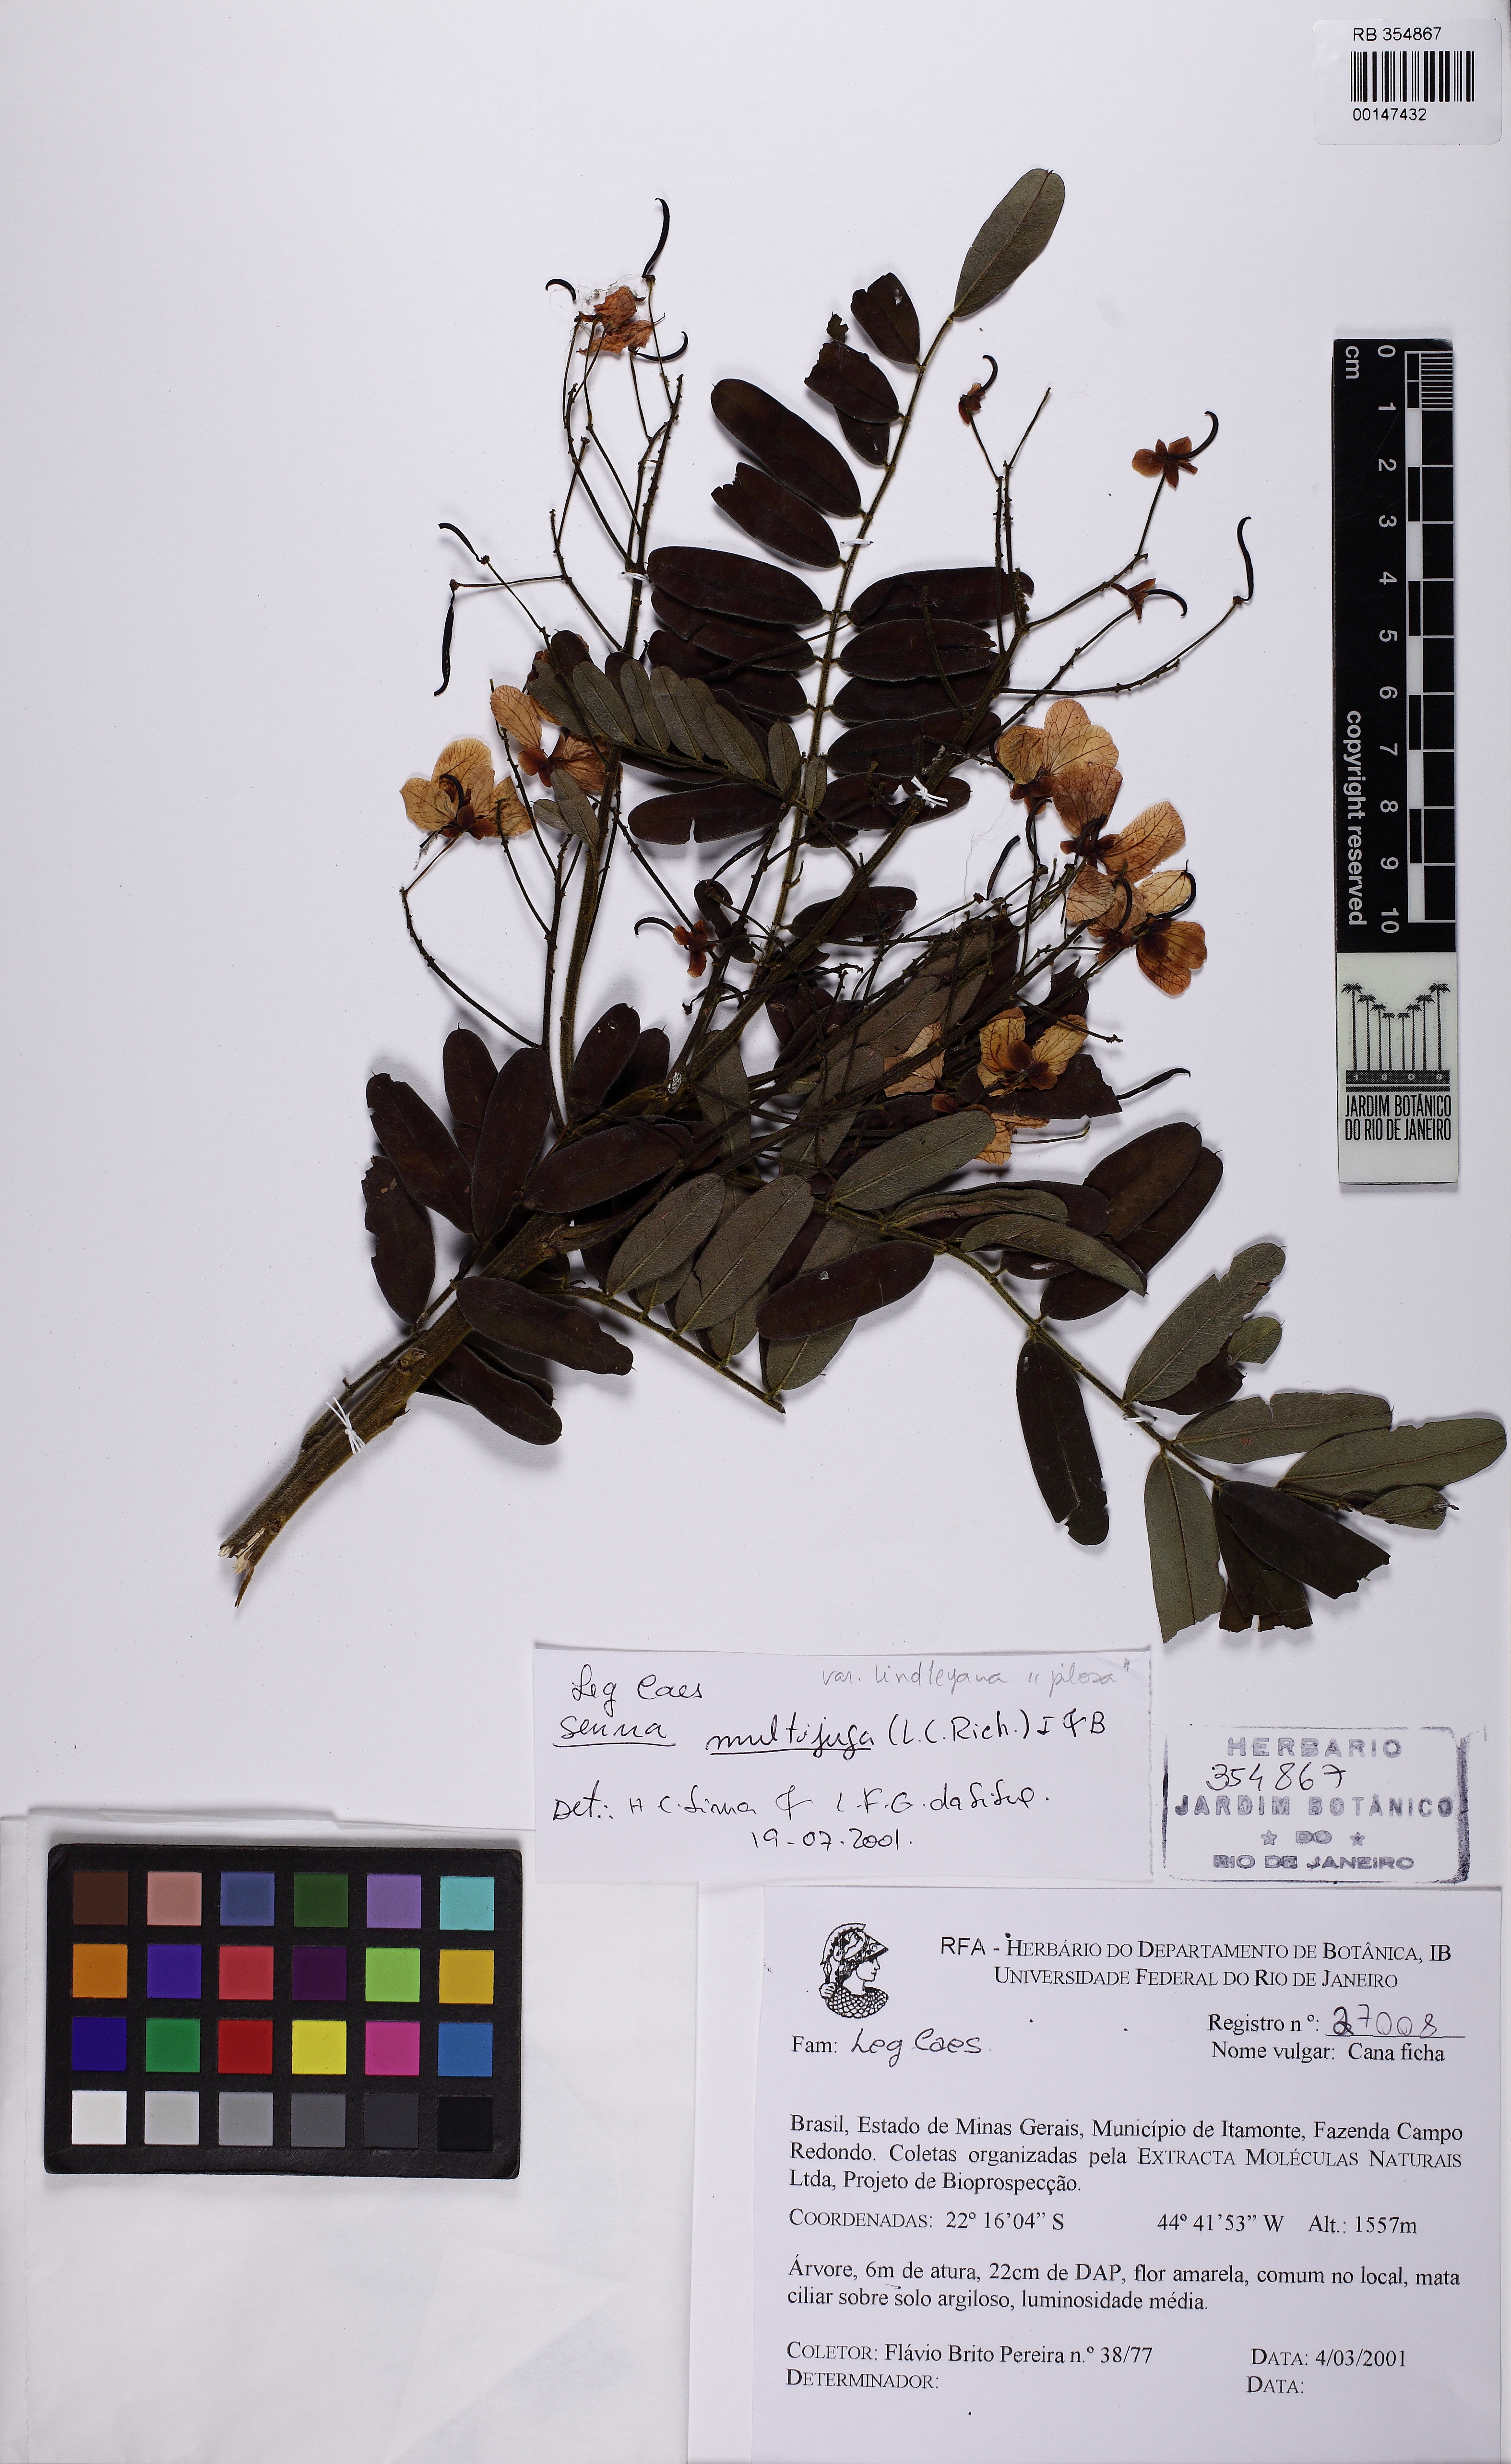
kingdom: Plantae
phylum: Tracheophyta
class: Magnoliopsida
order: Fabales
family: Fabaceae
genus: Senna
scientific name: Senna multijuga
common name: False sicklepod
